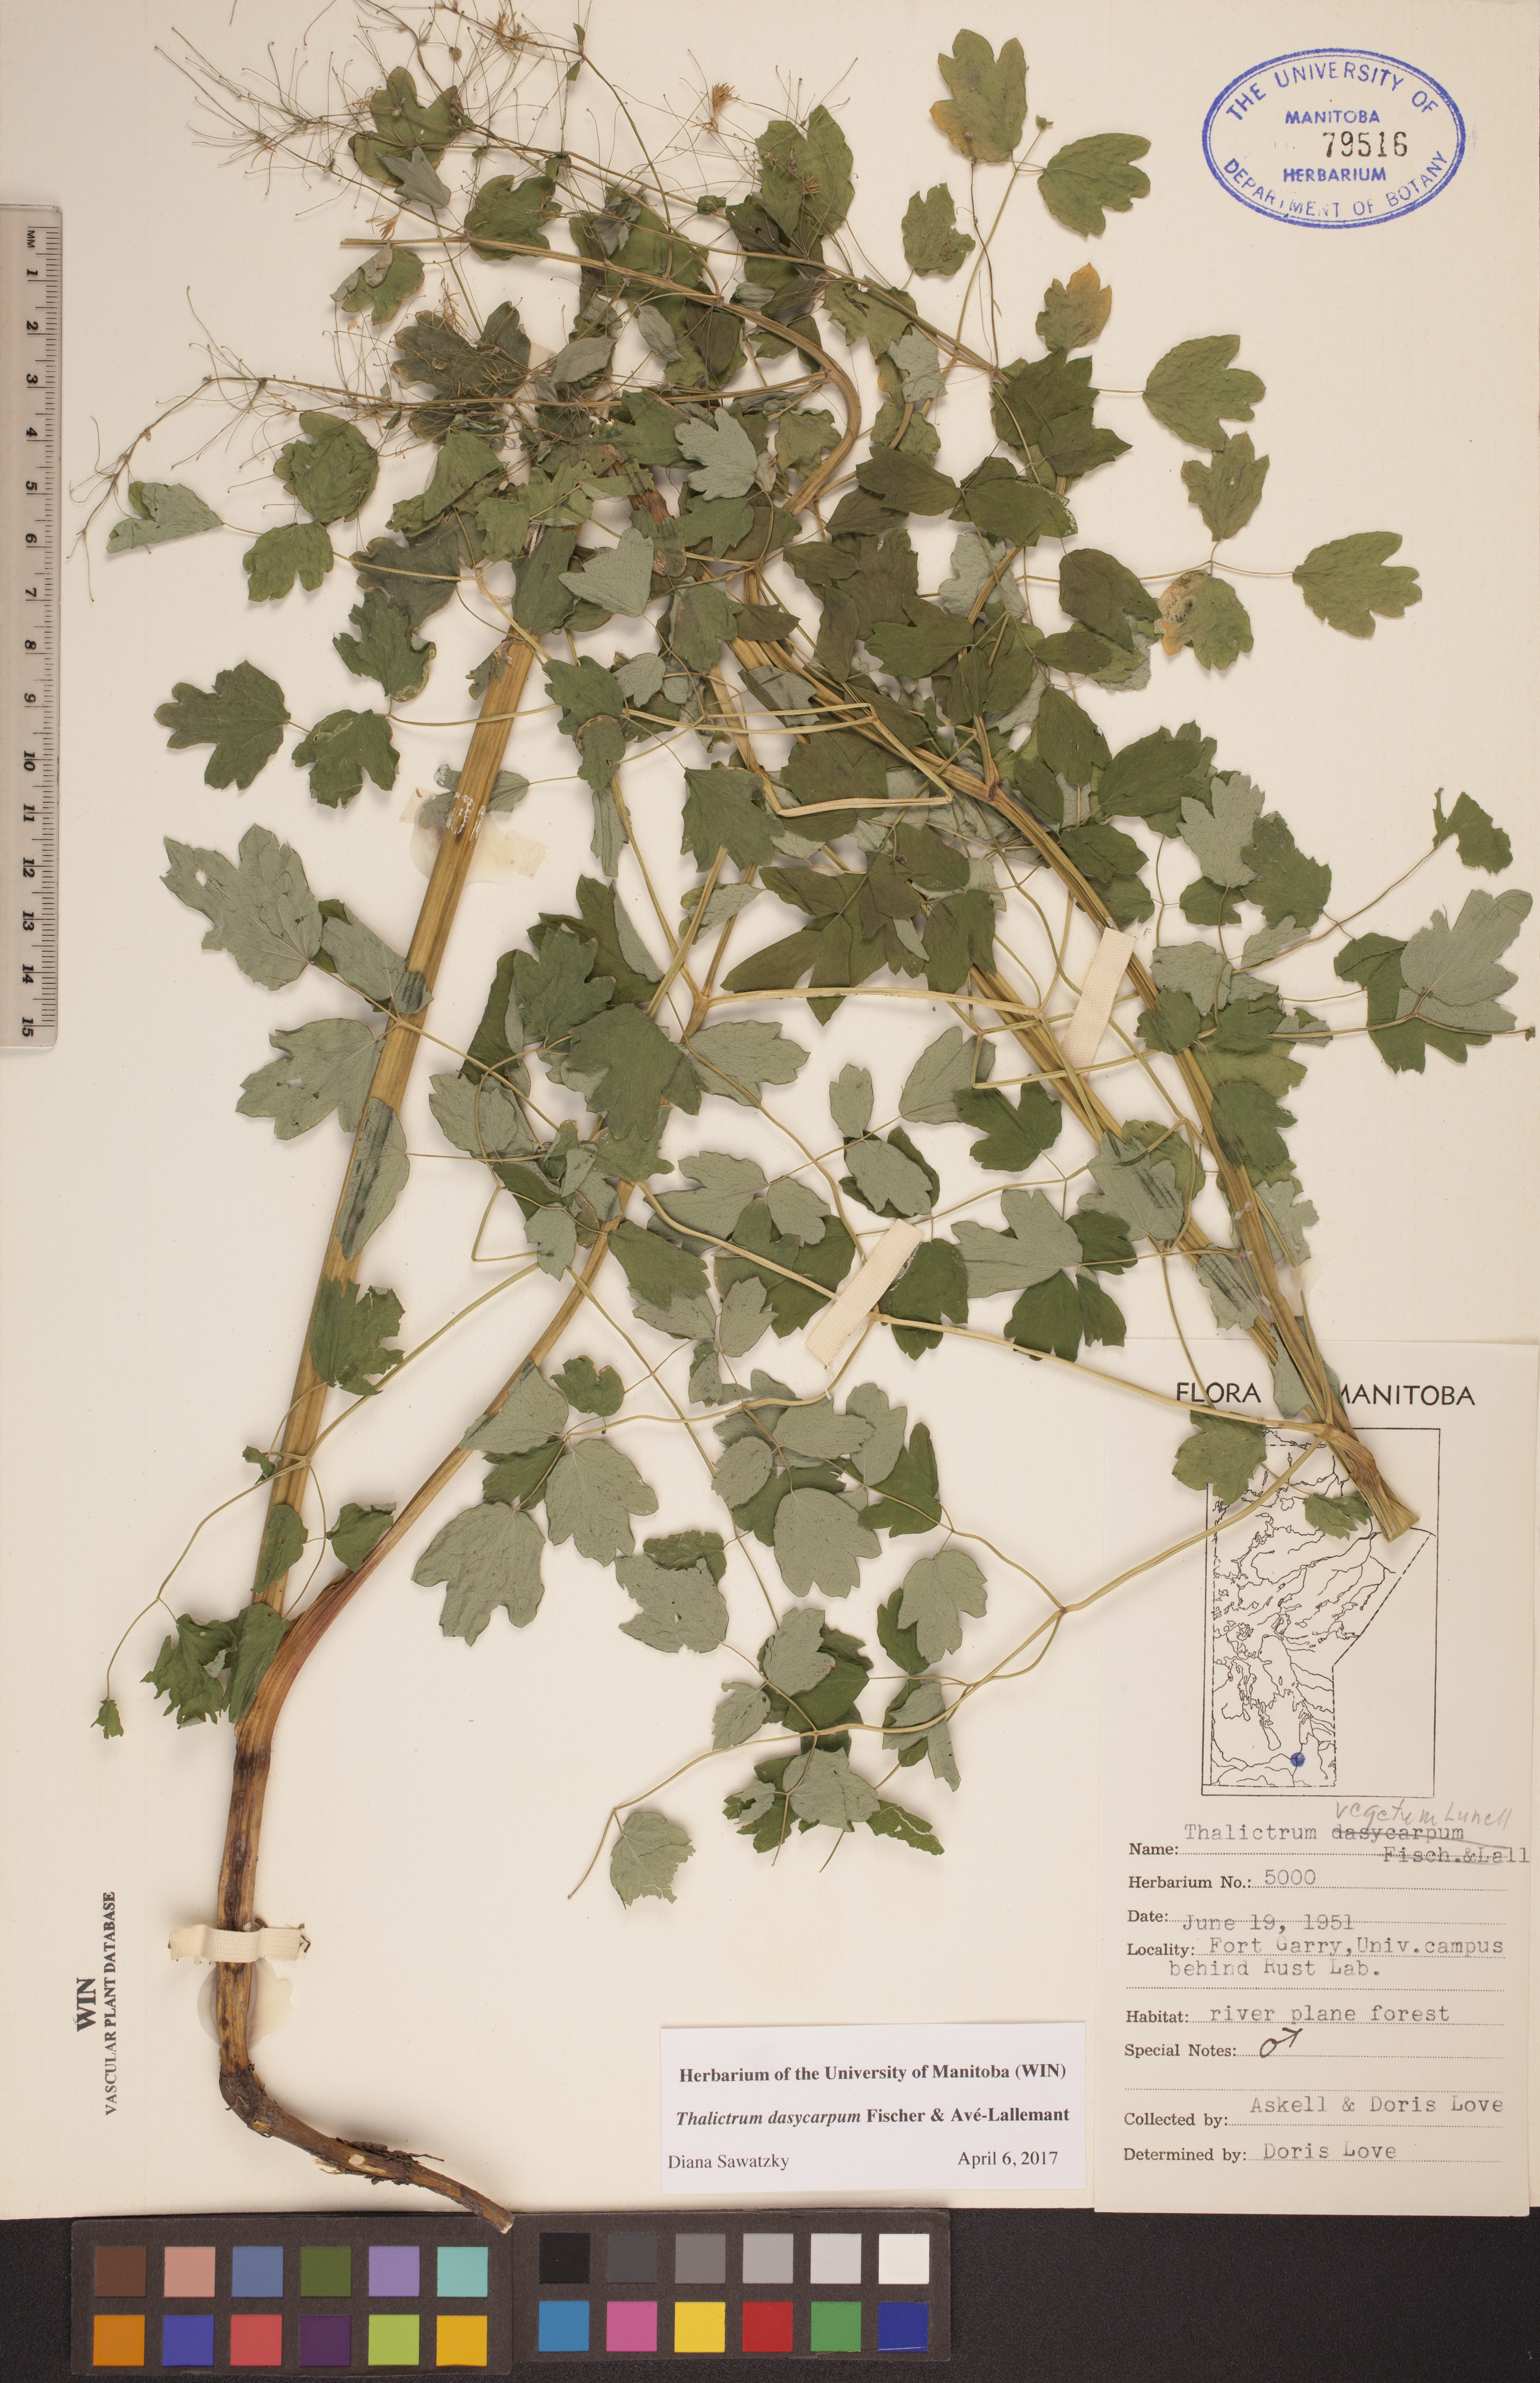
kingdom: Plantae
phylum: Tracheophyta
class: Magnoliopsida
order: Ranunculales
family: Ranunculaceae
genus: Thalictrum
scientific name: Thalictrum dasycarpum
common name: Purple meadow-rue
